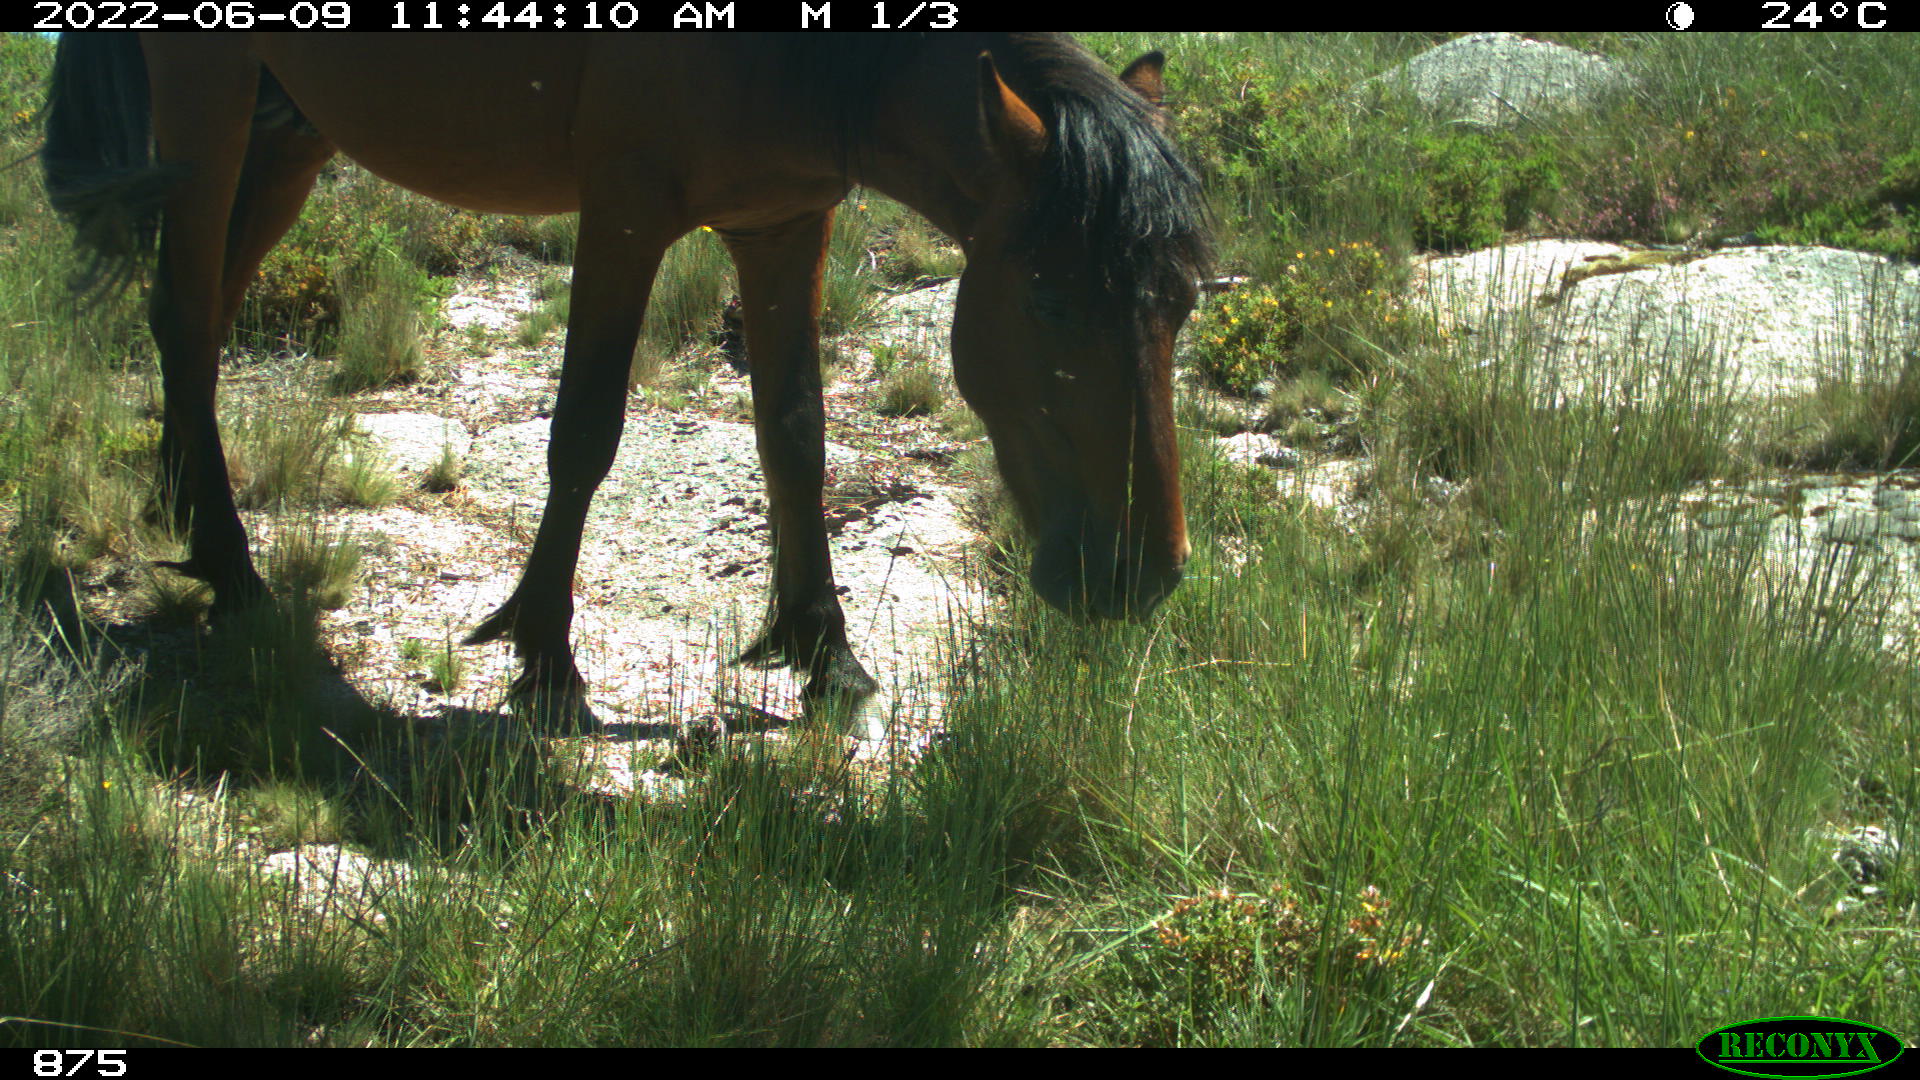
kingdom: Animalia
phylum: Chordata
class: Mammalia
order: Perissodactyla
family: Equidae
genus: Equus
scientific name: Equus caballus
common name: Horse
